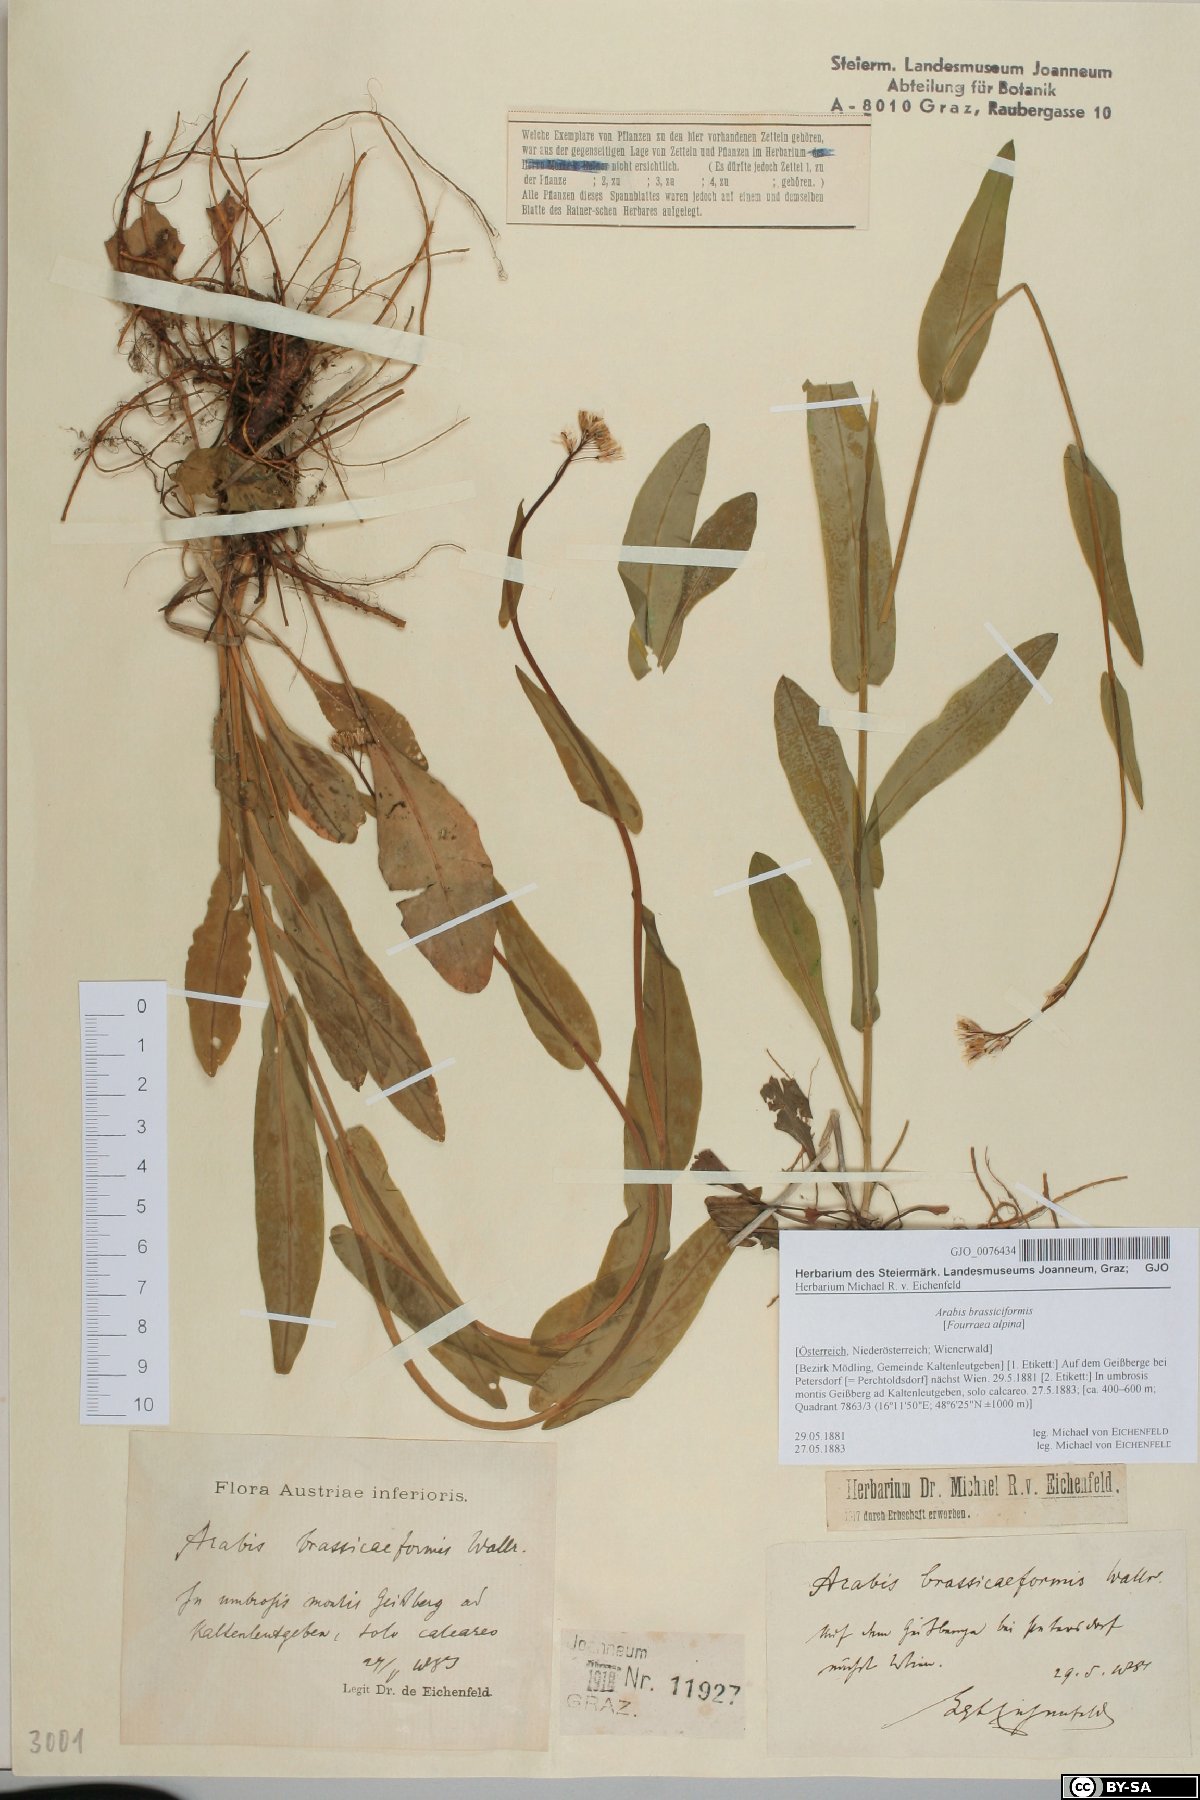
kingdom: Plantae
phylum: Tracheophyta
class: Magnoliopsida
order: Brassicales
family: Brassicaceae
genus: Fourraea
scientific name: Fourraea alpina
